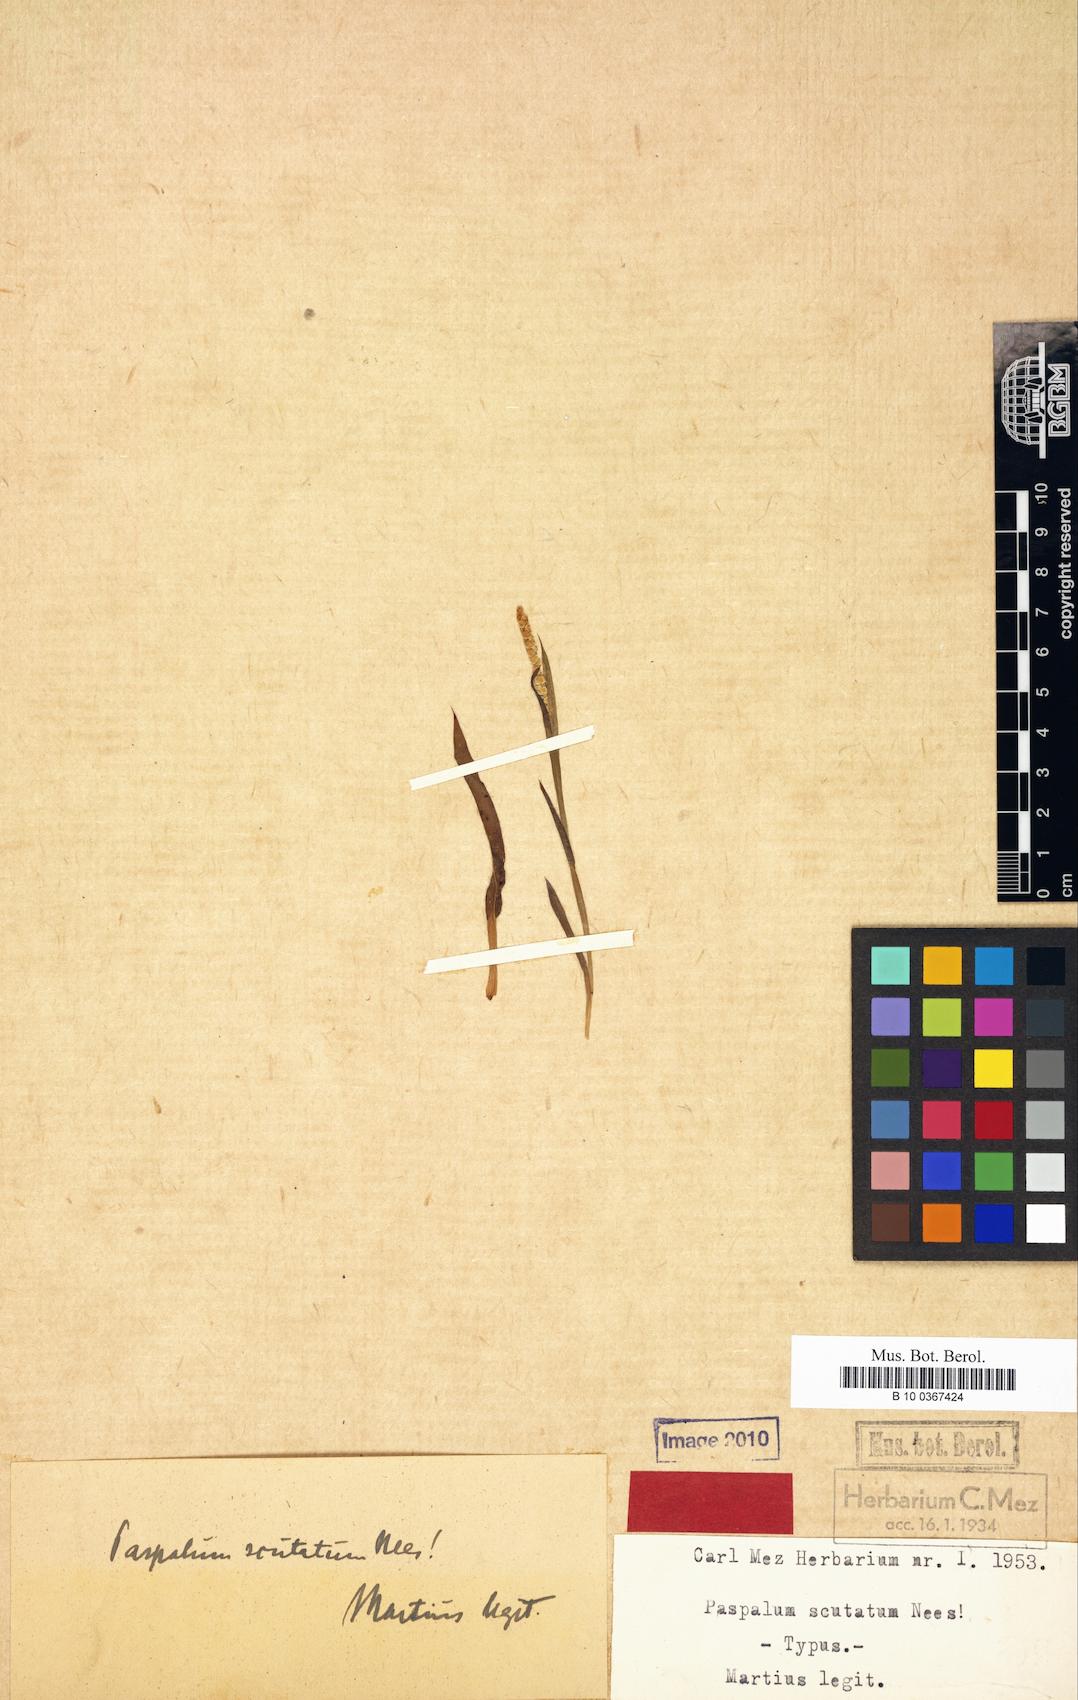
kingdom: Plantae
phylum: Tracheophyta
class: Liliopsida
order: Poales
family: Poaceae
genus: Paspalum
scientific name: Paspalum scutatum
